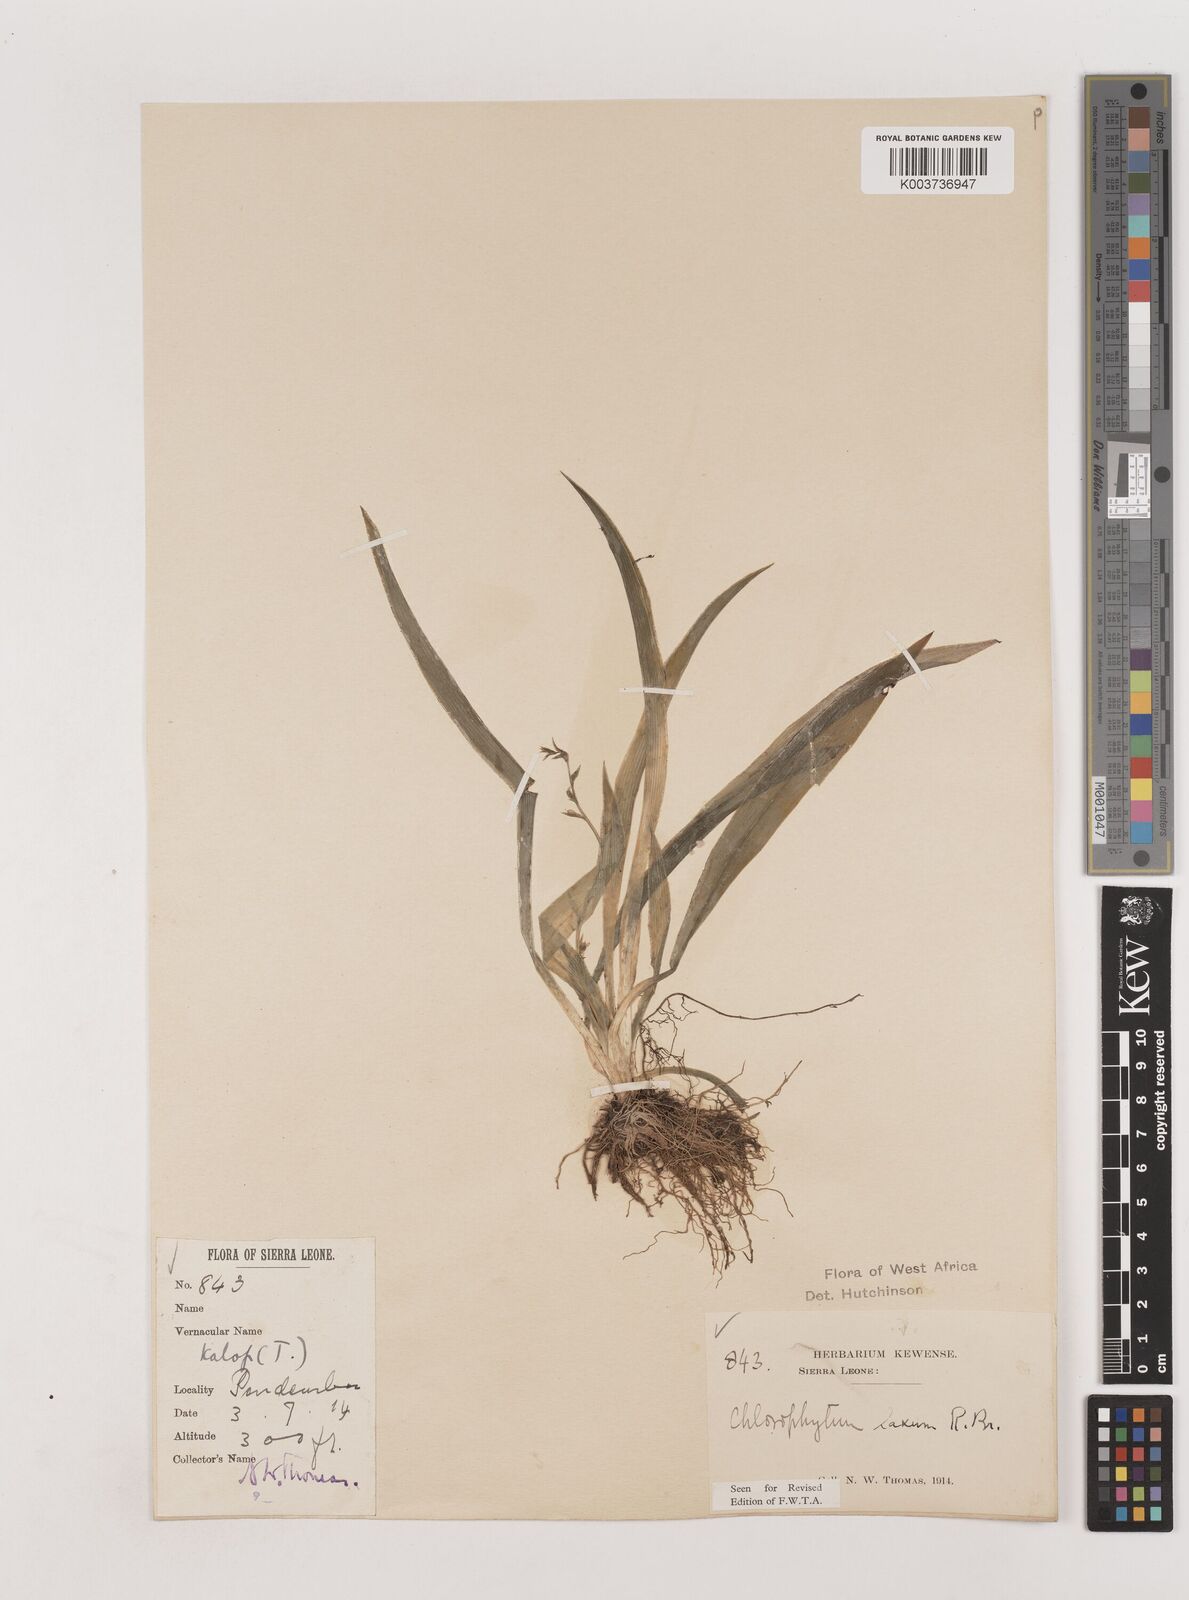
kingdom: Plantae
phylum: Tracheophyta
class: Liliopsida
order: Asparagales
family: Asparagaceae
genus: Chlorophytum
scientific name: Chlorophytum laxum
